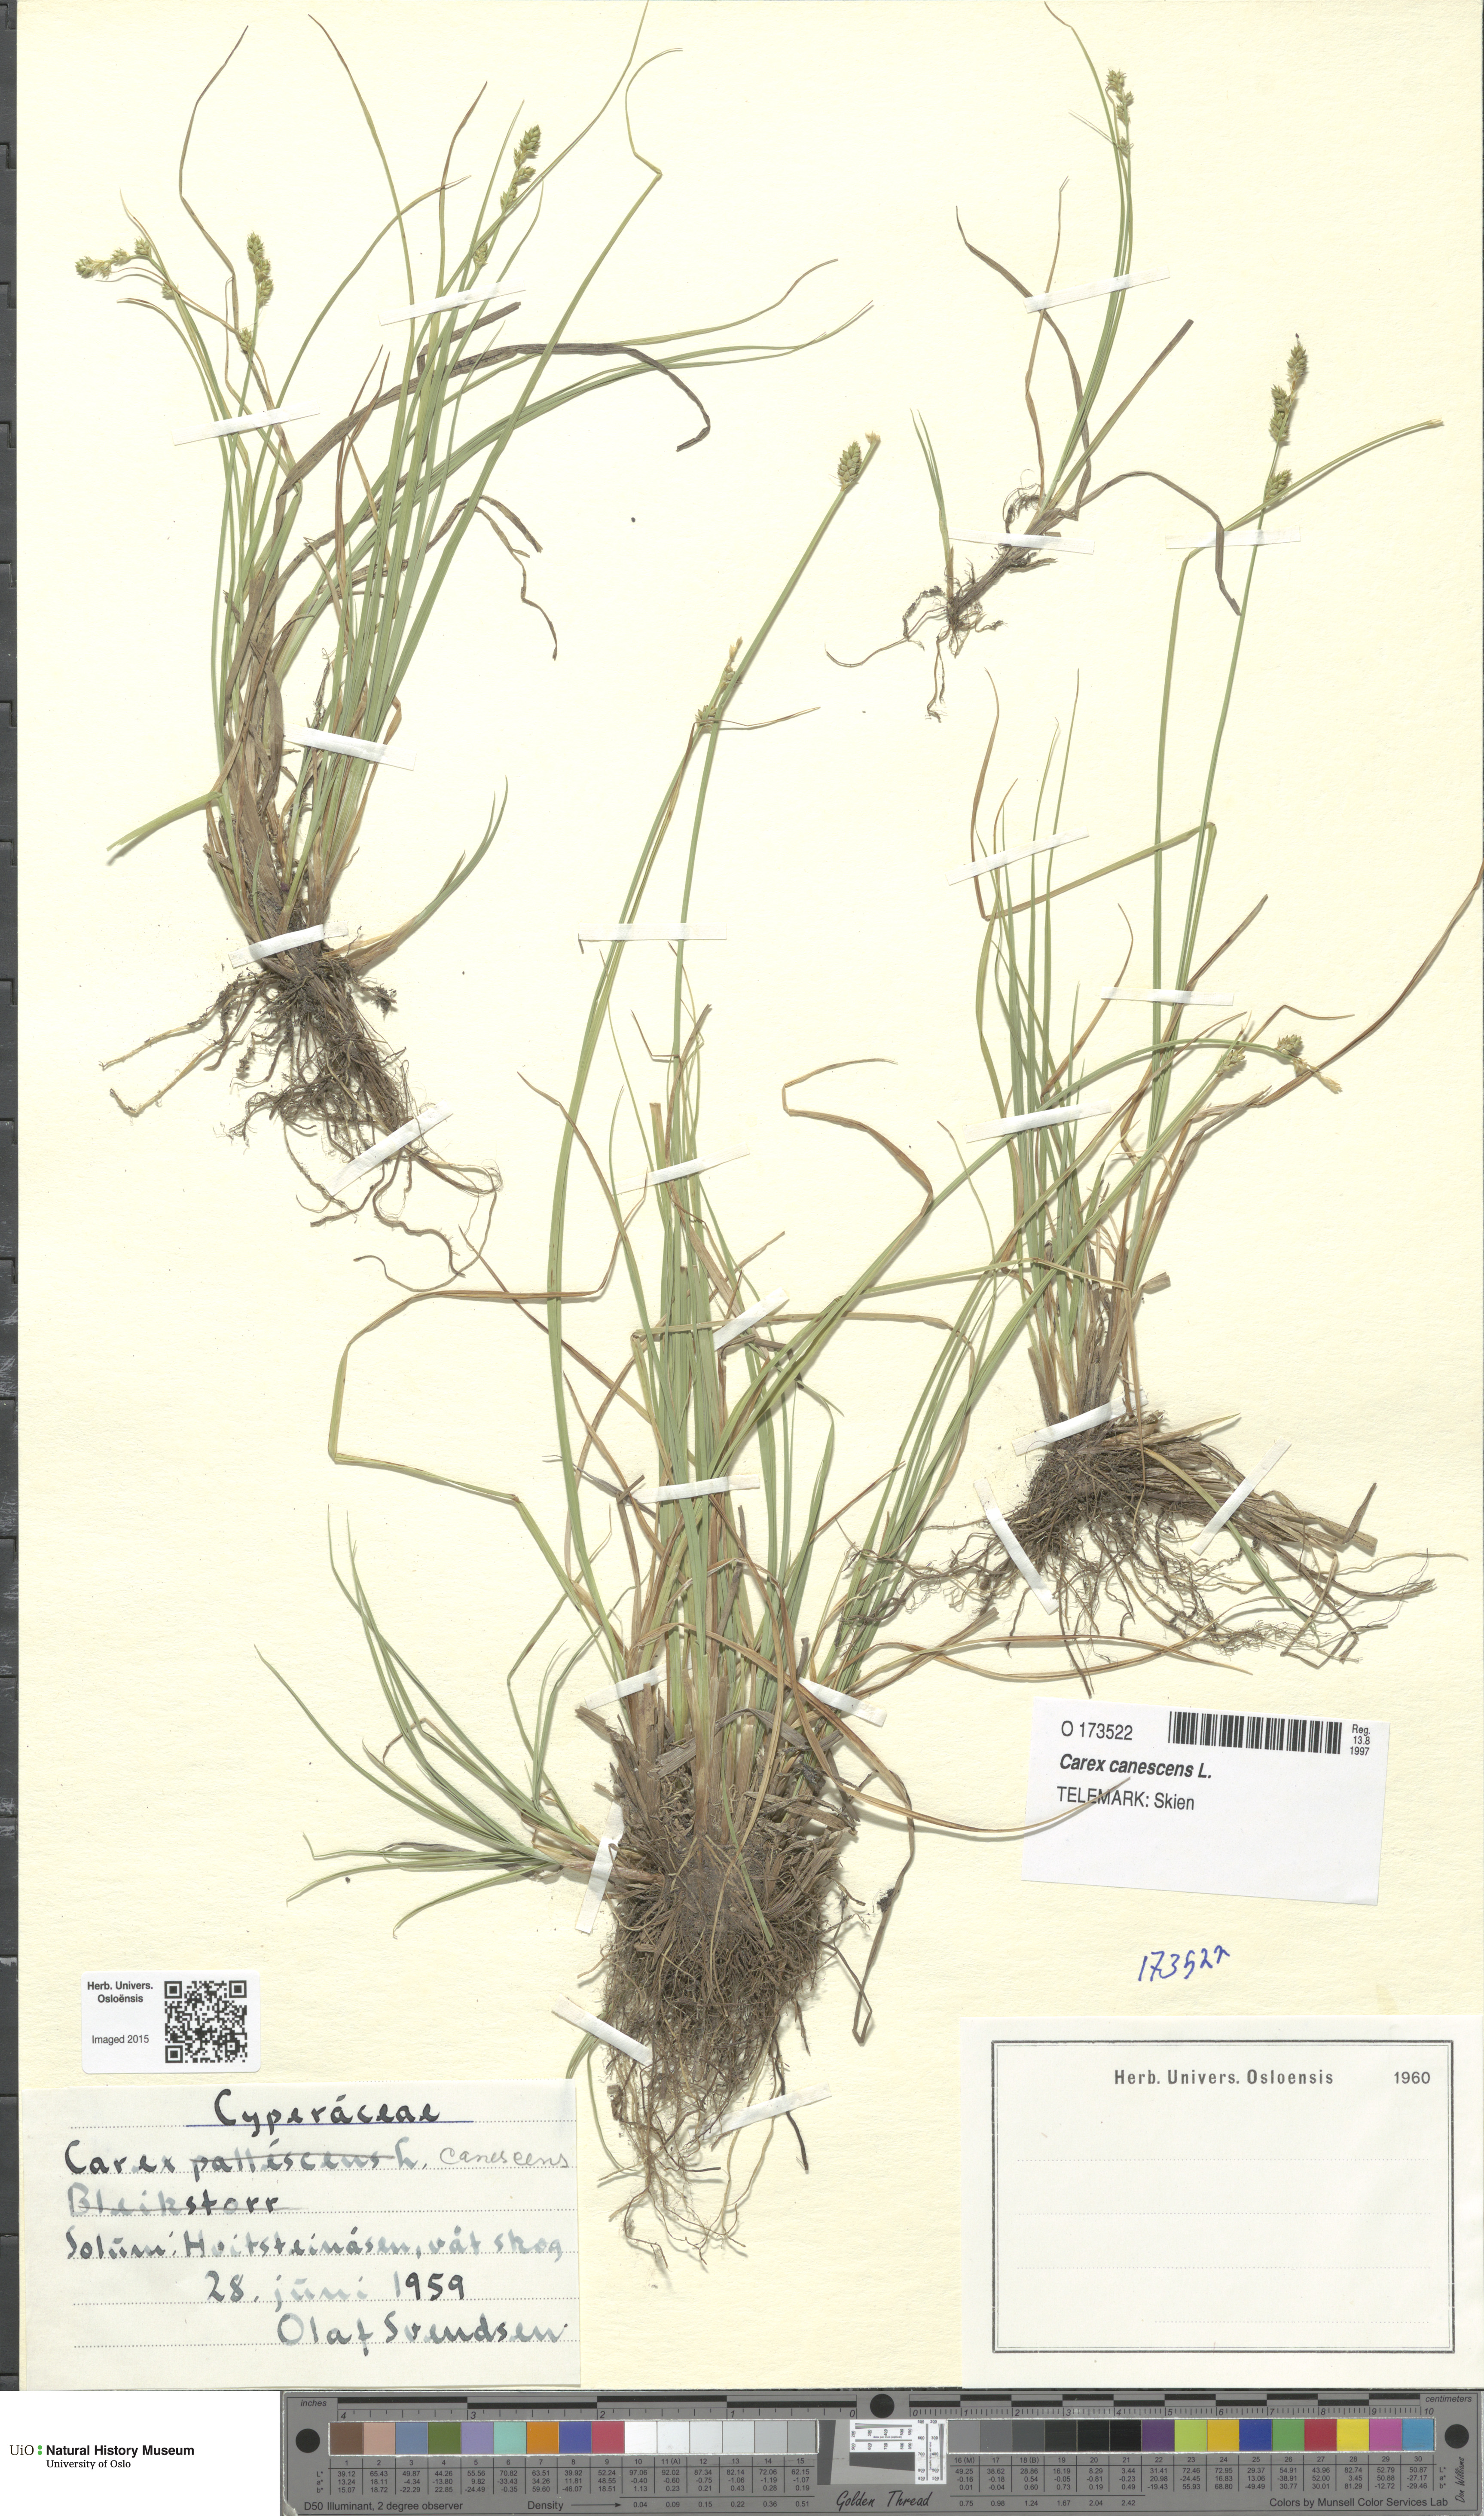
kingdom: Plantae
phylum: Tracheophyta
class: Liliopsida
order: Poales
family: Cyperaceae
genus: Carex
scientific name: Carex canescens
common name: White sedge
